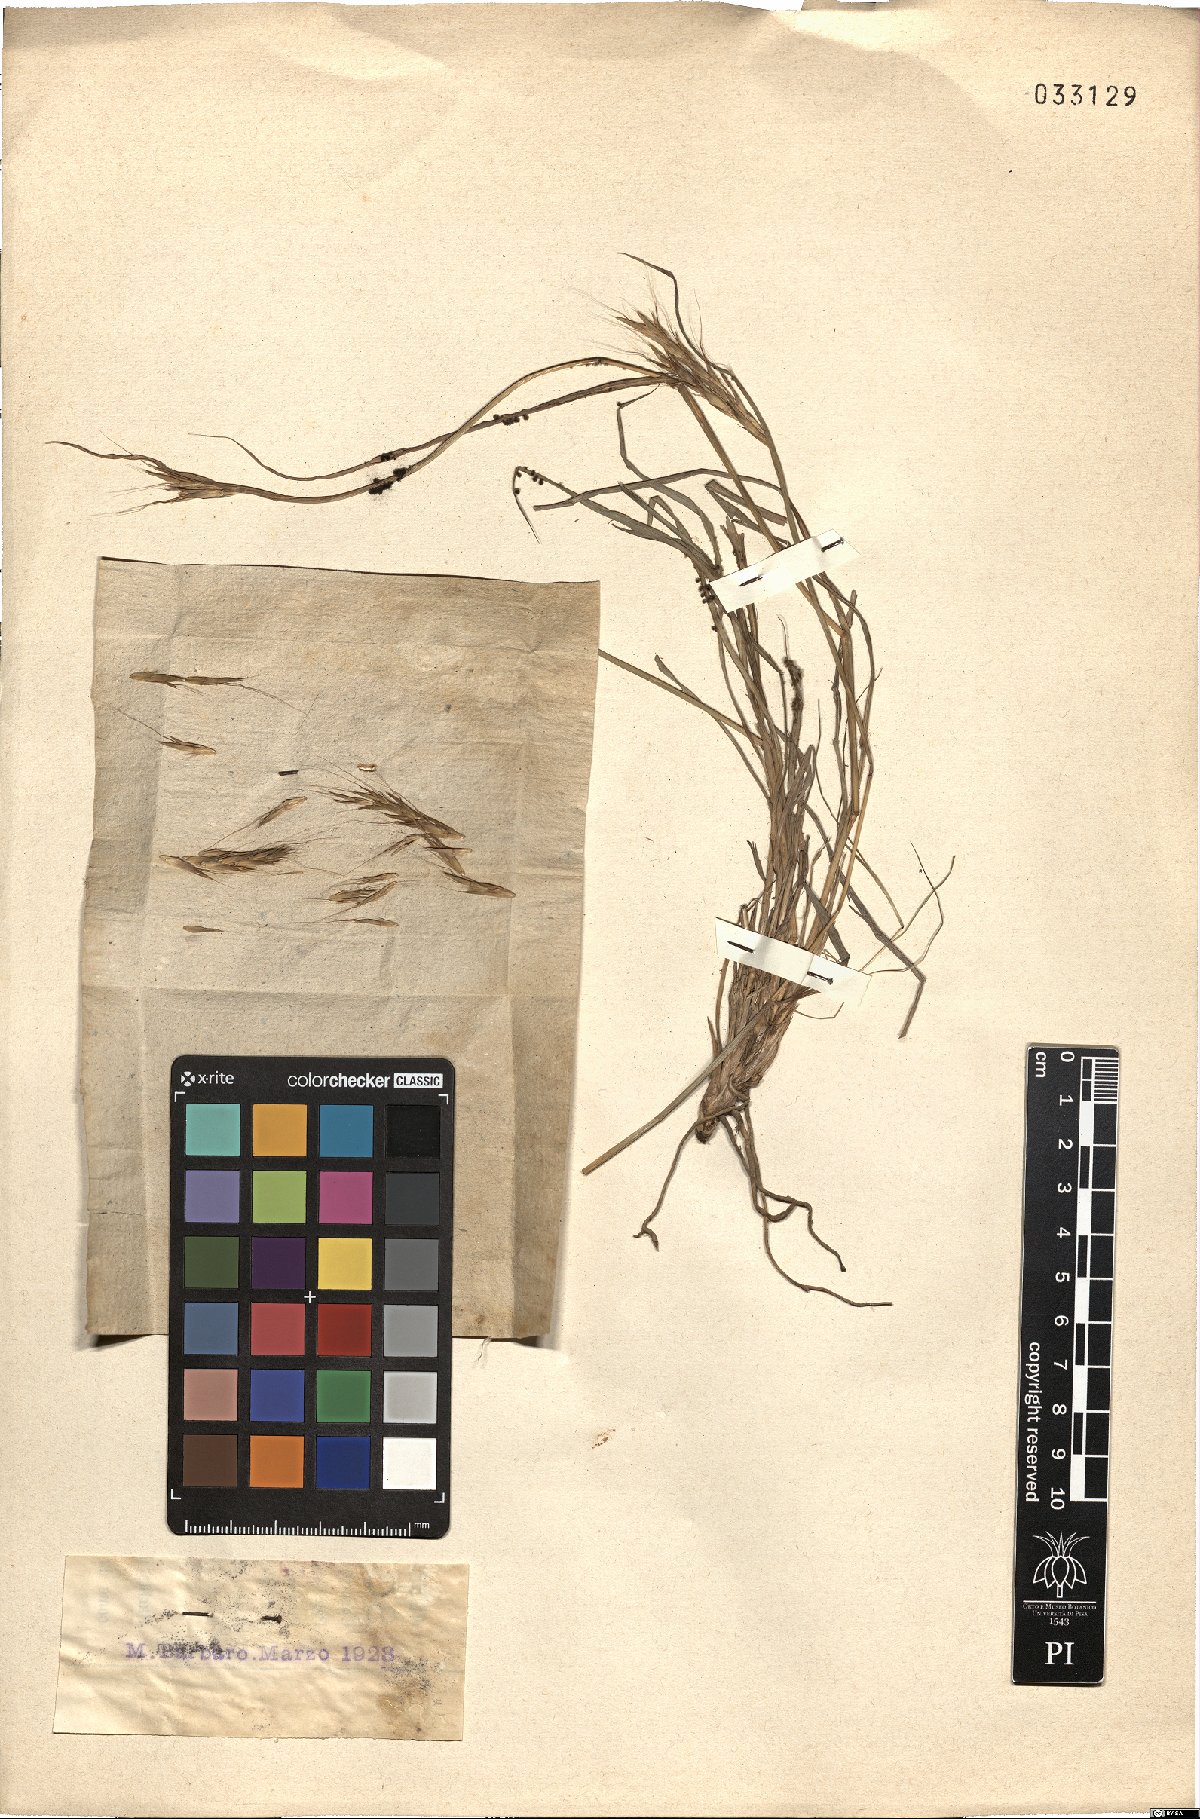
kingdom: Plantae
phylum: Tracheophyta
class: Liliopsida
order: Poales
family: Poaceae
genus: Hyparrhenia
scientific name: Hyparrhenia hirta
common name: Thatching grass
